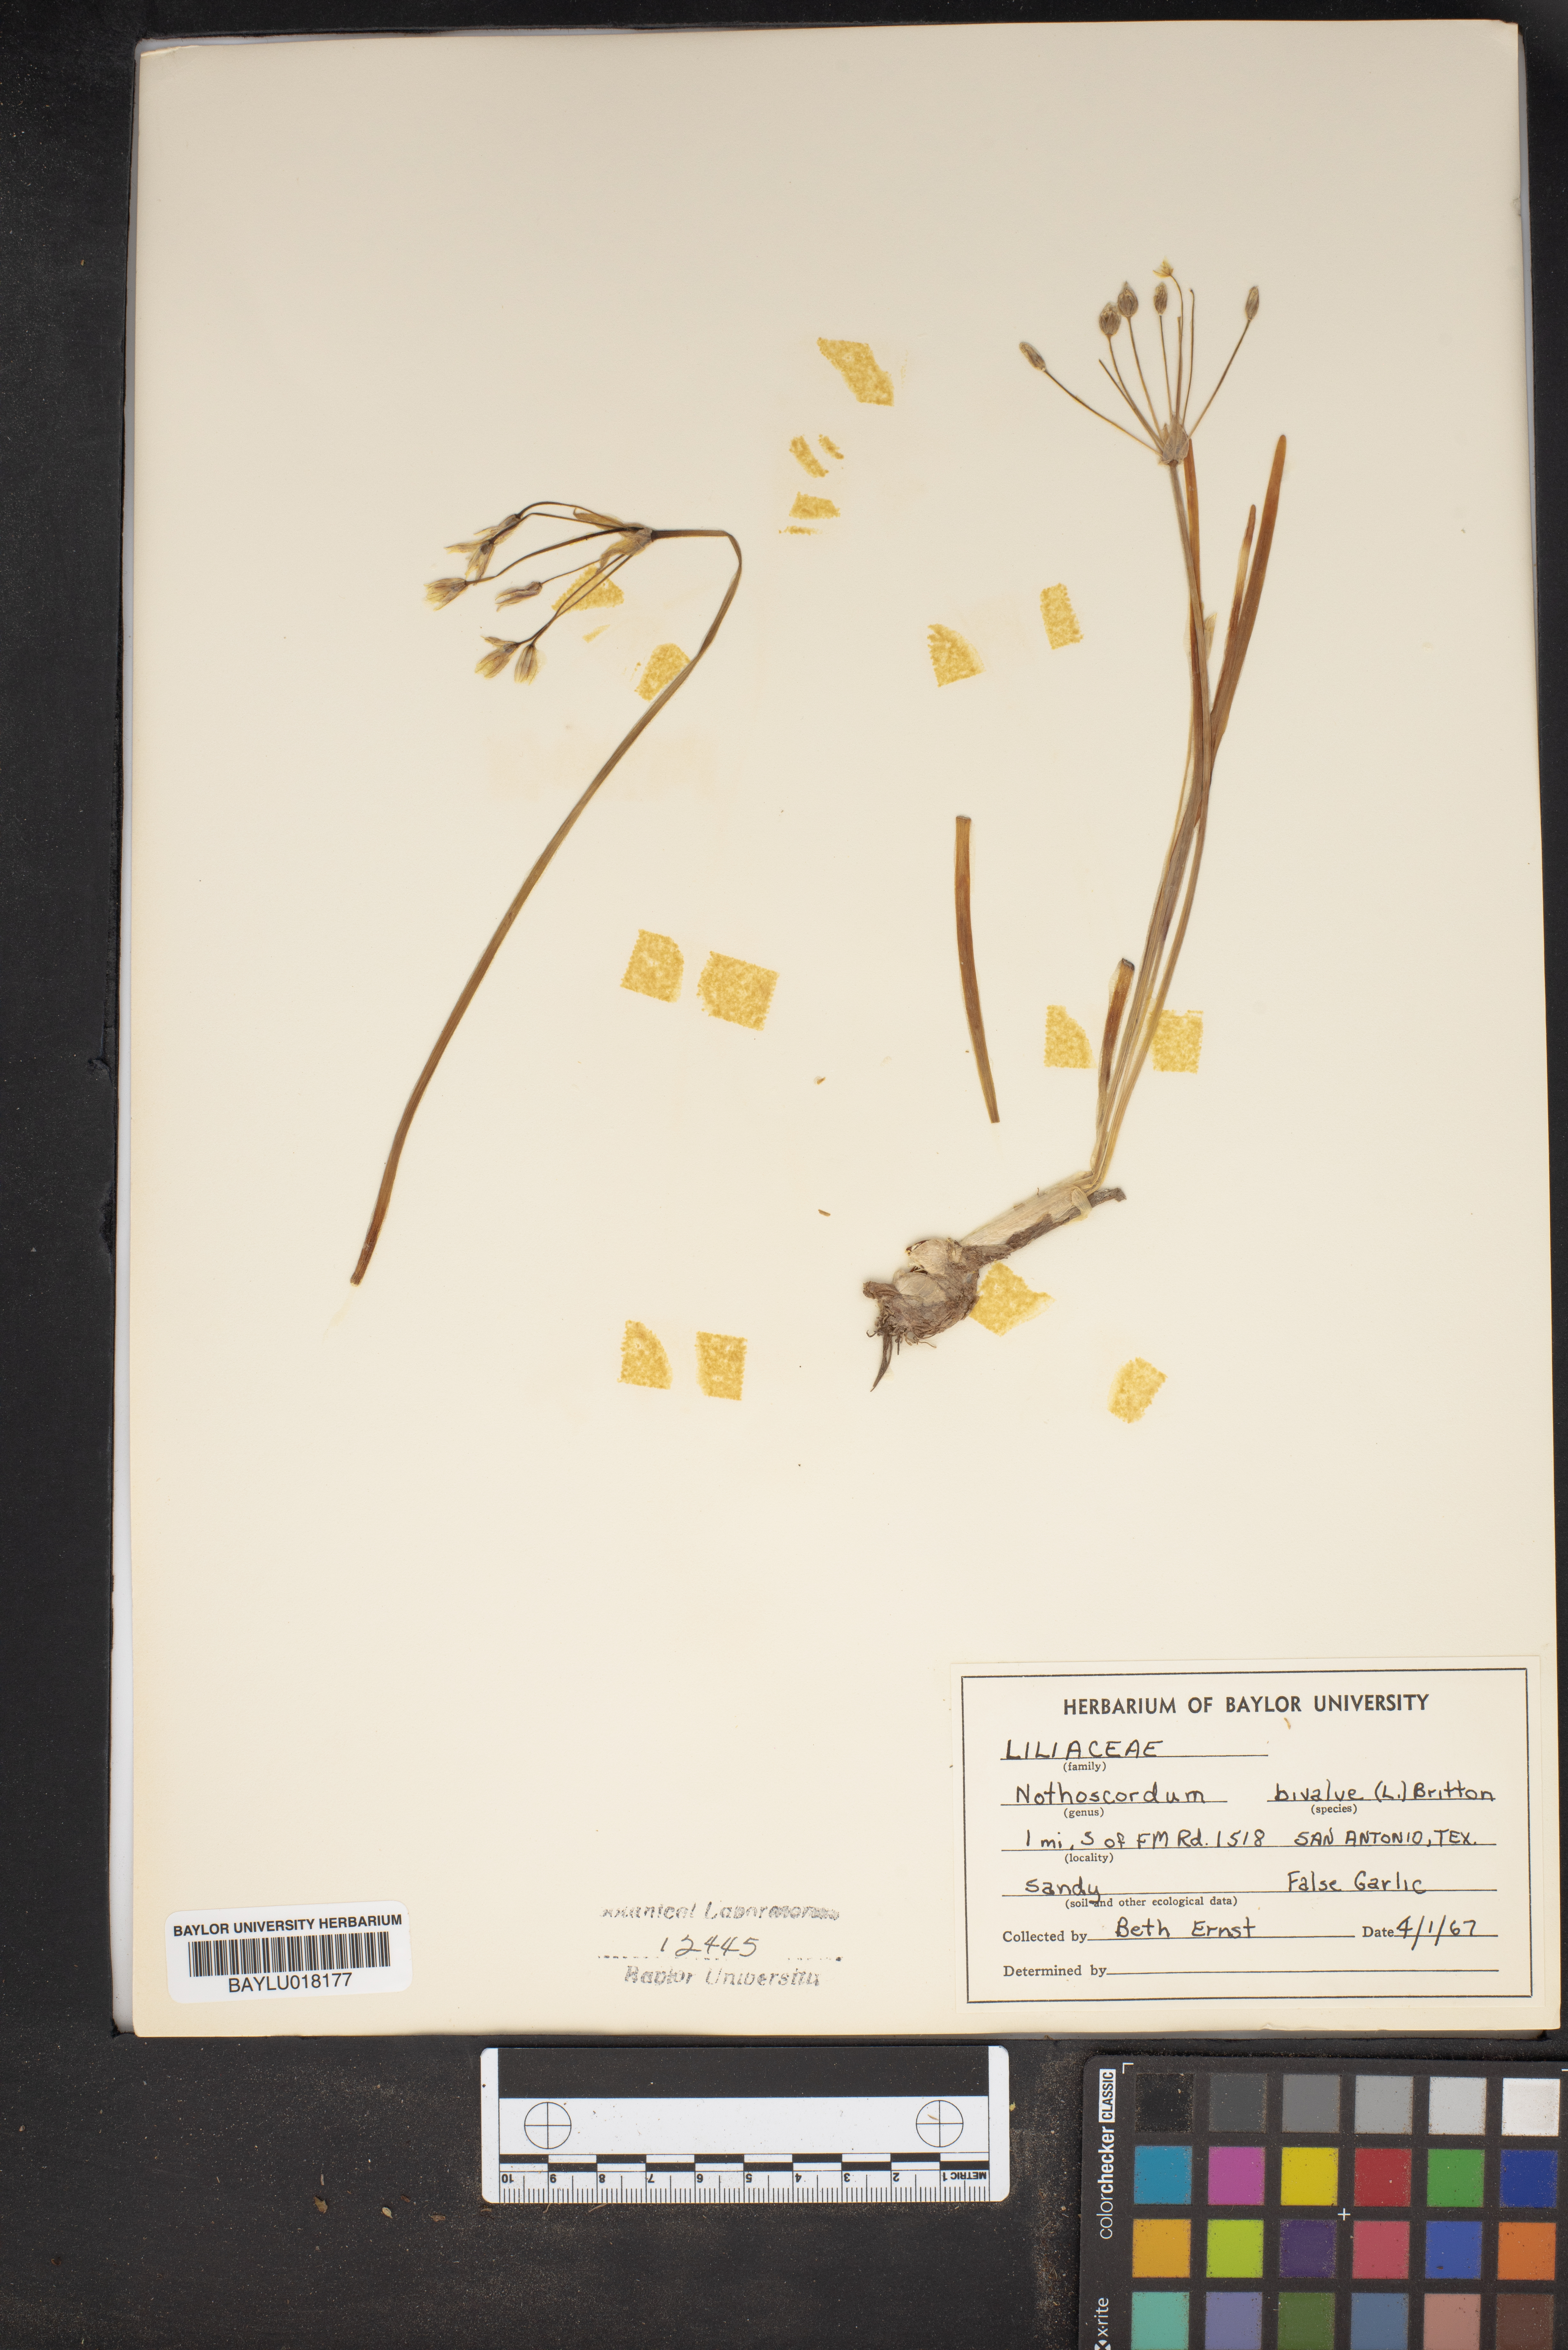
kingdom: Plantae
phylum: Tracheophyta
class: Liliopsida
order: Asparagales
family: Amaryllidaceae
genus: Nothoscordum
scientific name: Nothoscordum bivalve
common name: Crow-poison
